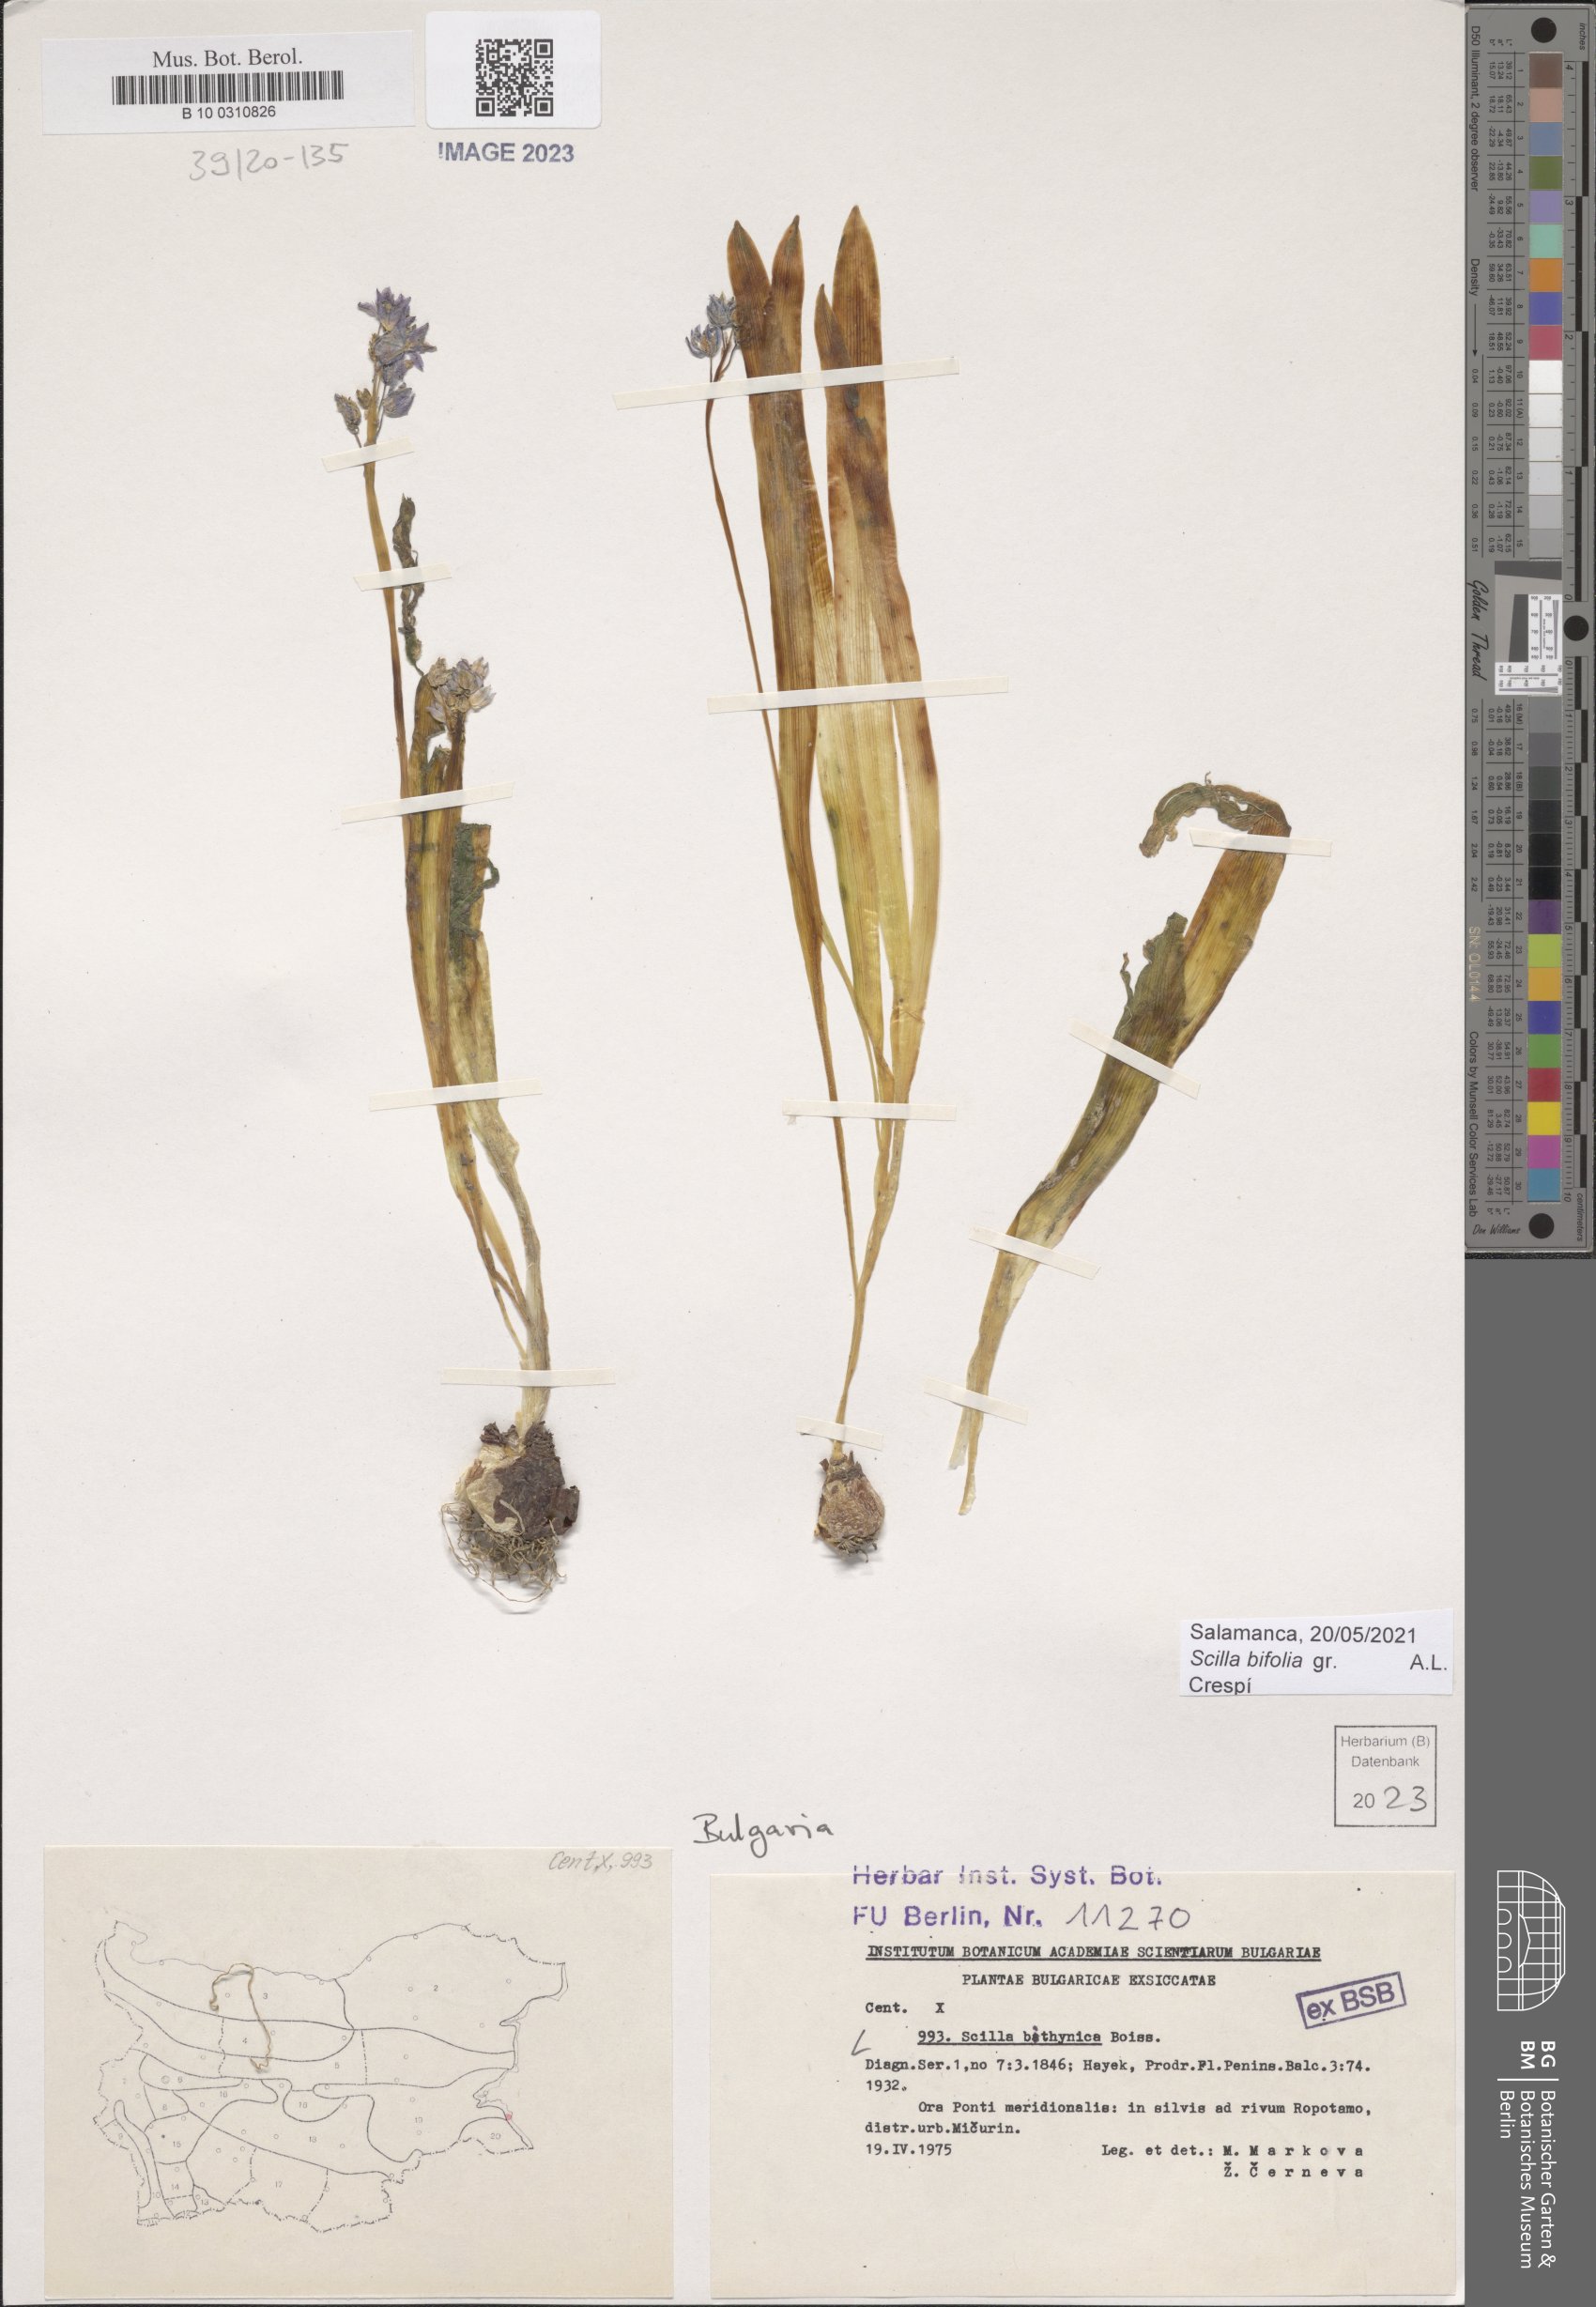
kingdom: Plantae
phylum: Tracheophyta
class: Liliopsida
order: Asparagales
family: Asparagaceae
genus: Scilla
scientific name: Scilla bithynica
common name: Turkish squill
